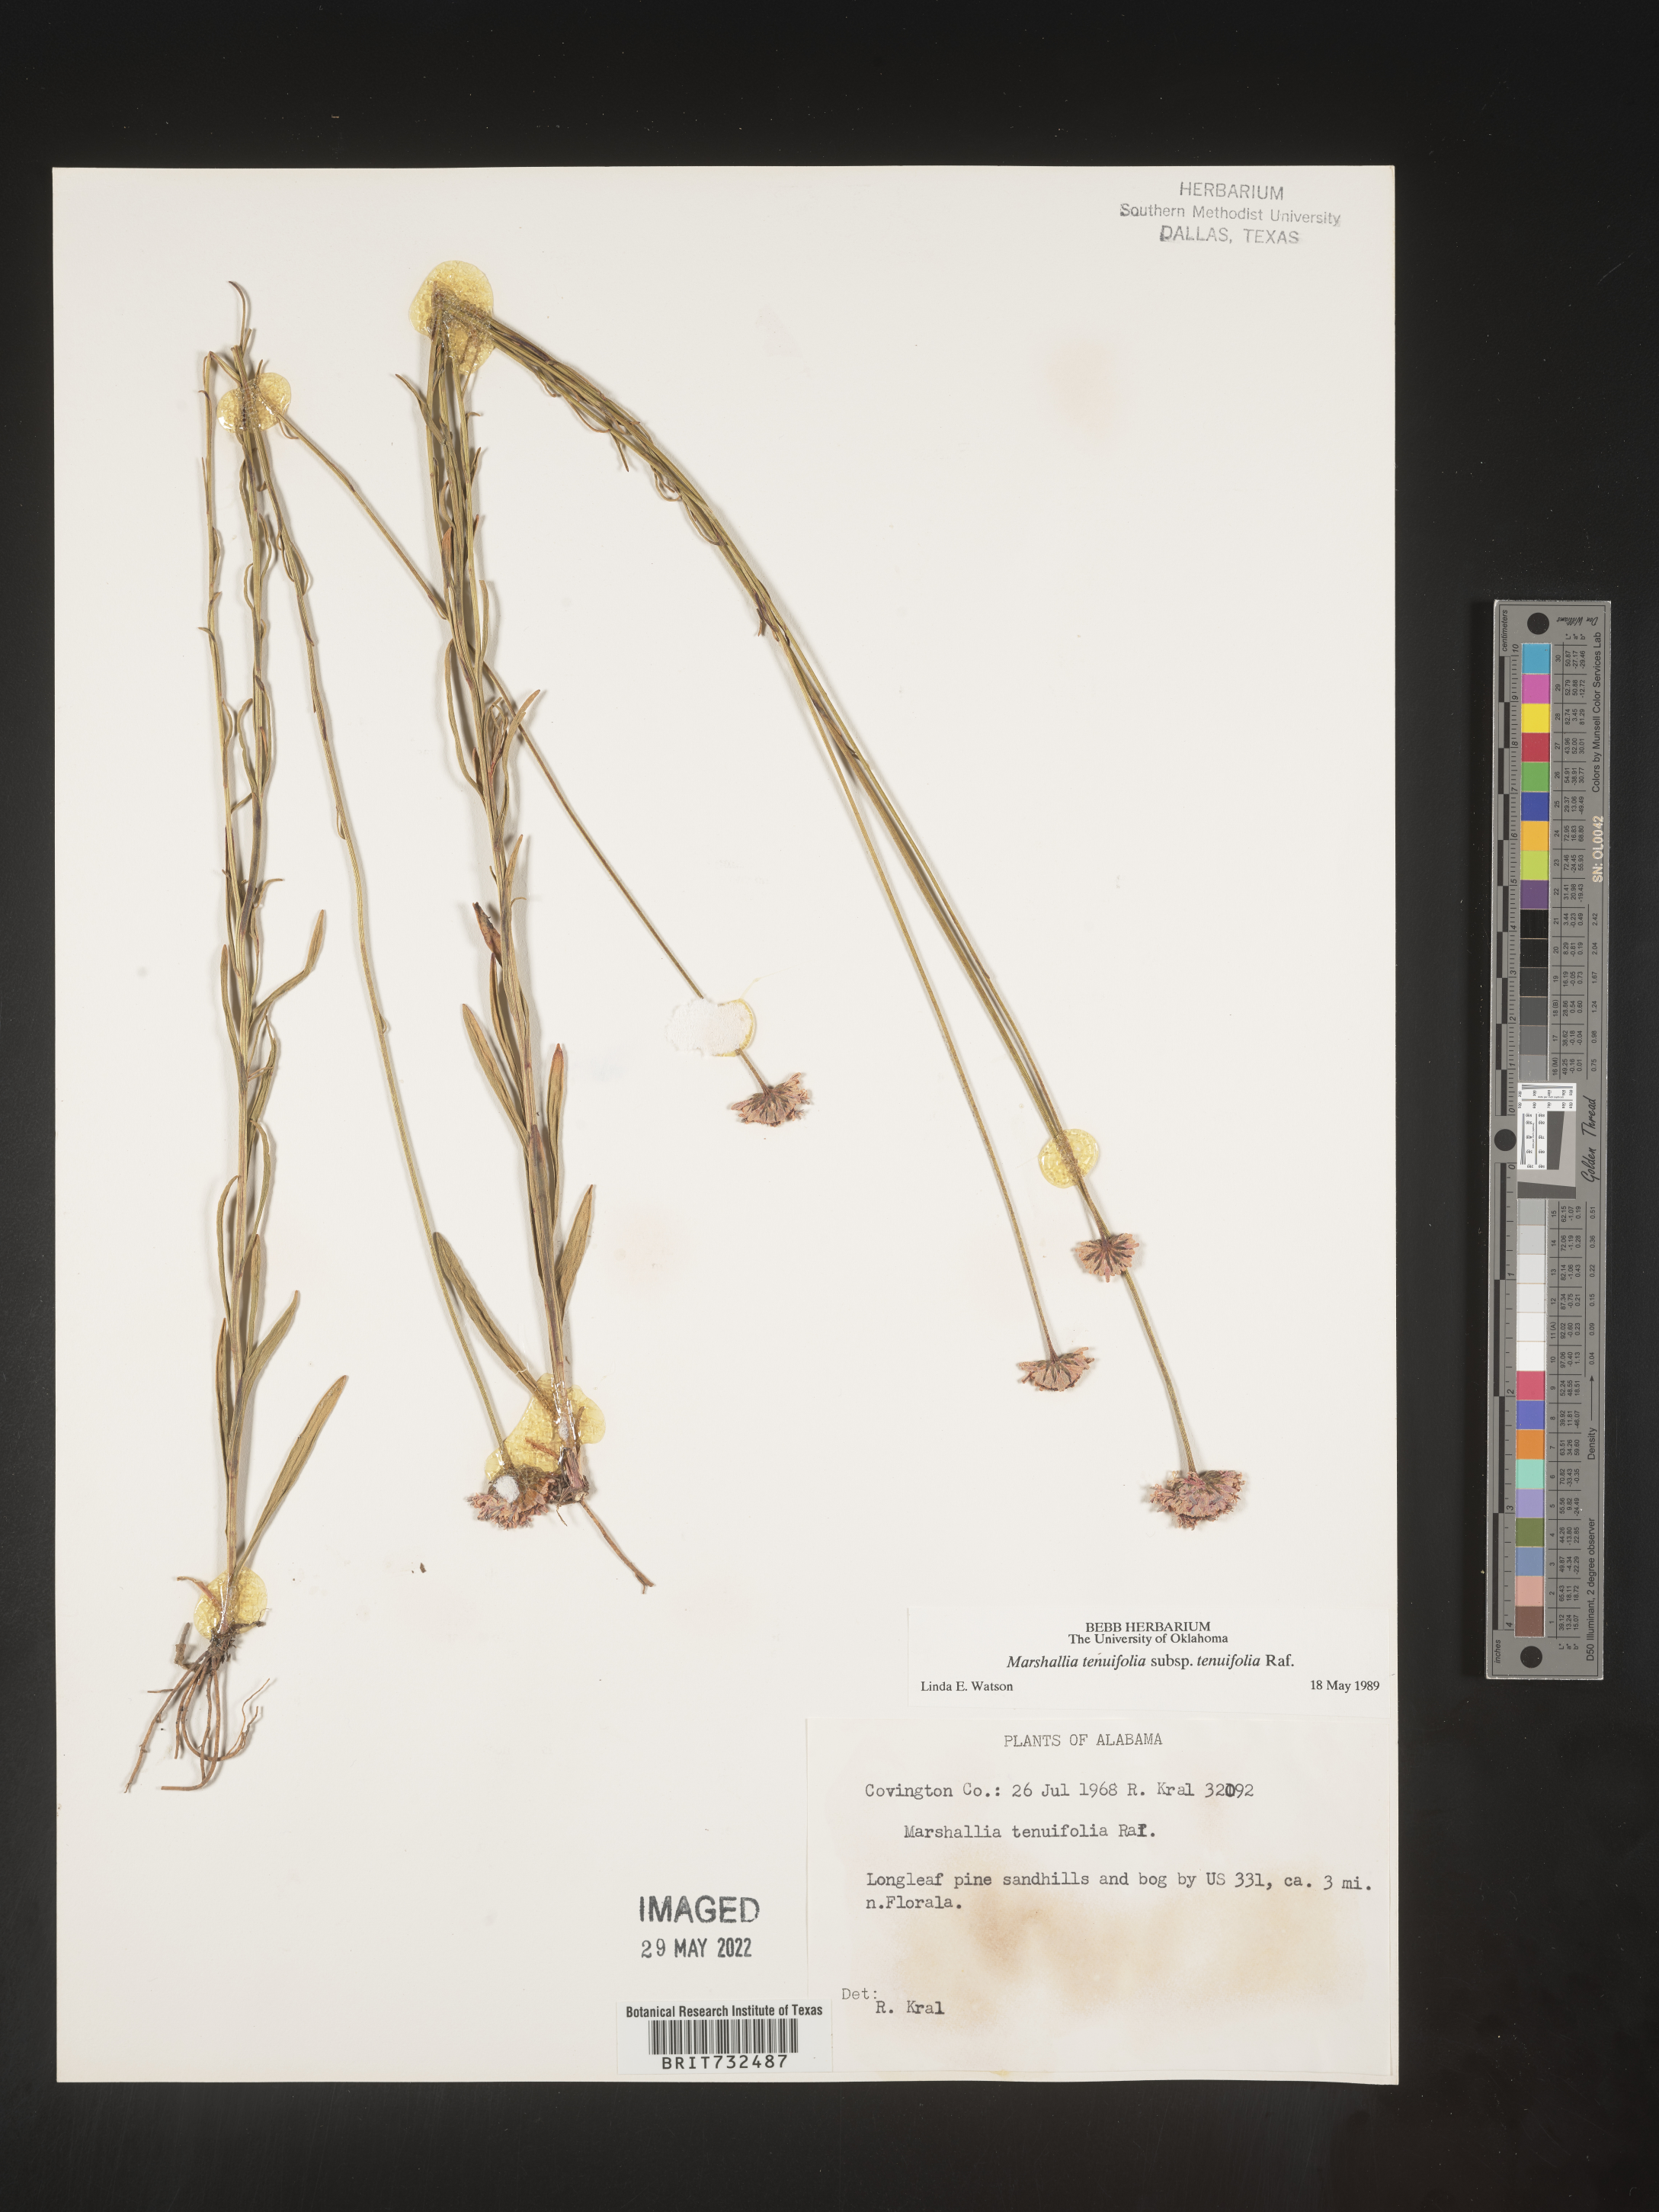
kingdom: Plantae
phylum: Tracheophyta
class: Magnoliopsida
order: Asterales
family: Asteraceae
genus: Vernonia
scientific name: Vernonia angustifolia
